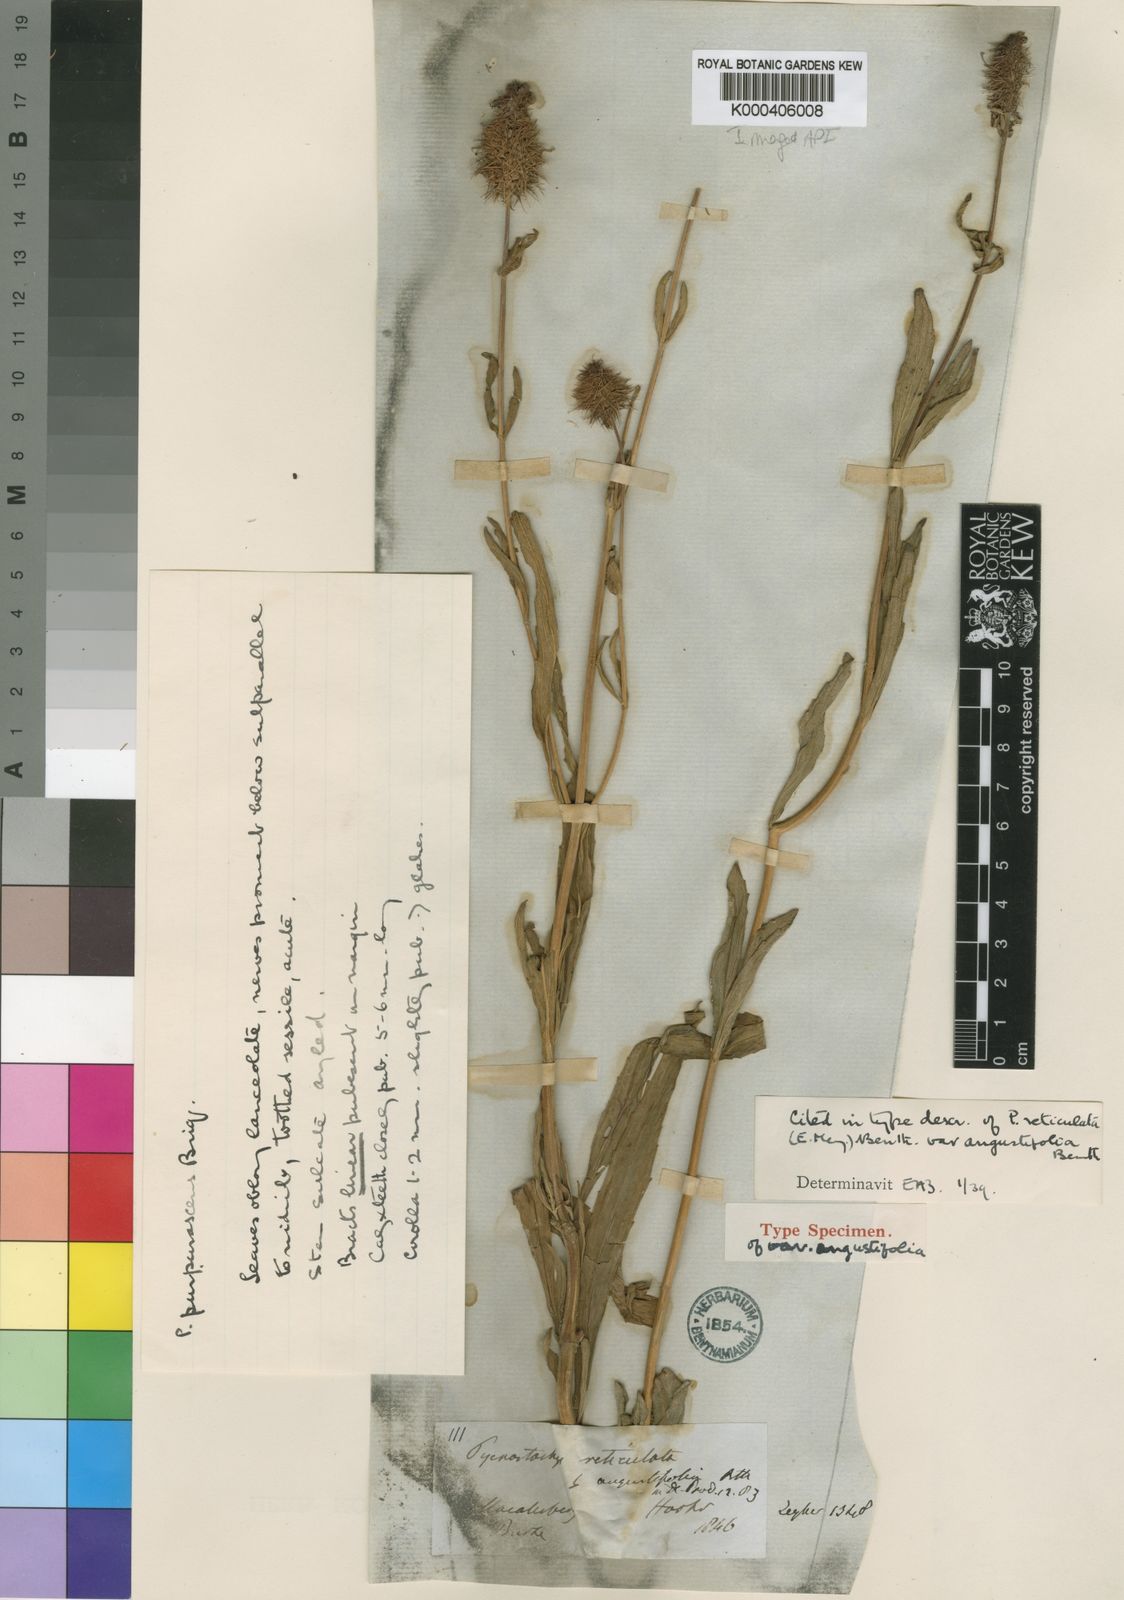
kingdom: Plantae
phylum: Tracheophyta
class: Magnoliopsida
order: Lamiales
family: Lamiaceae
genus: Coleus
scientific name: Coleus kirkii
